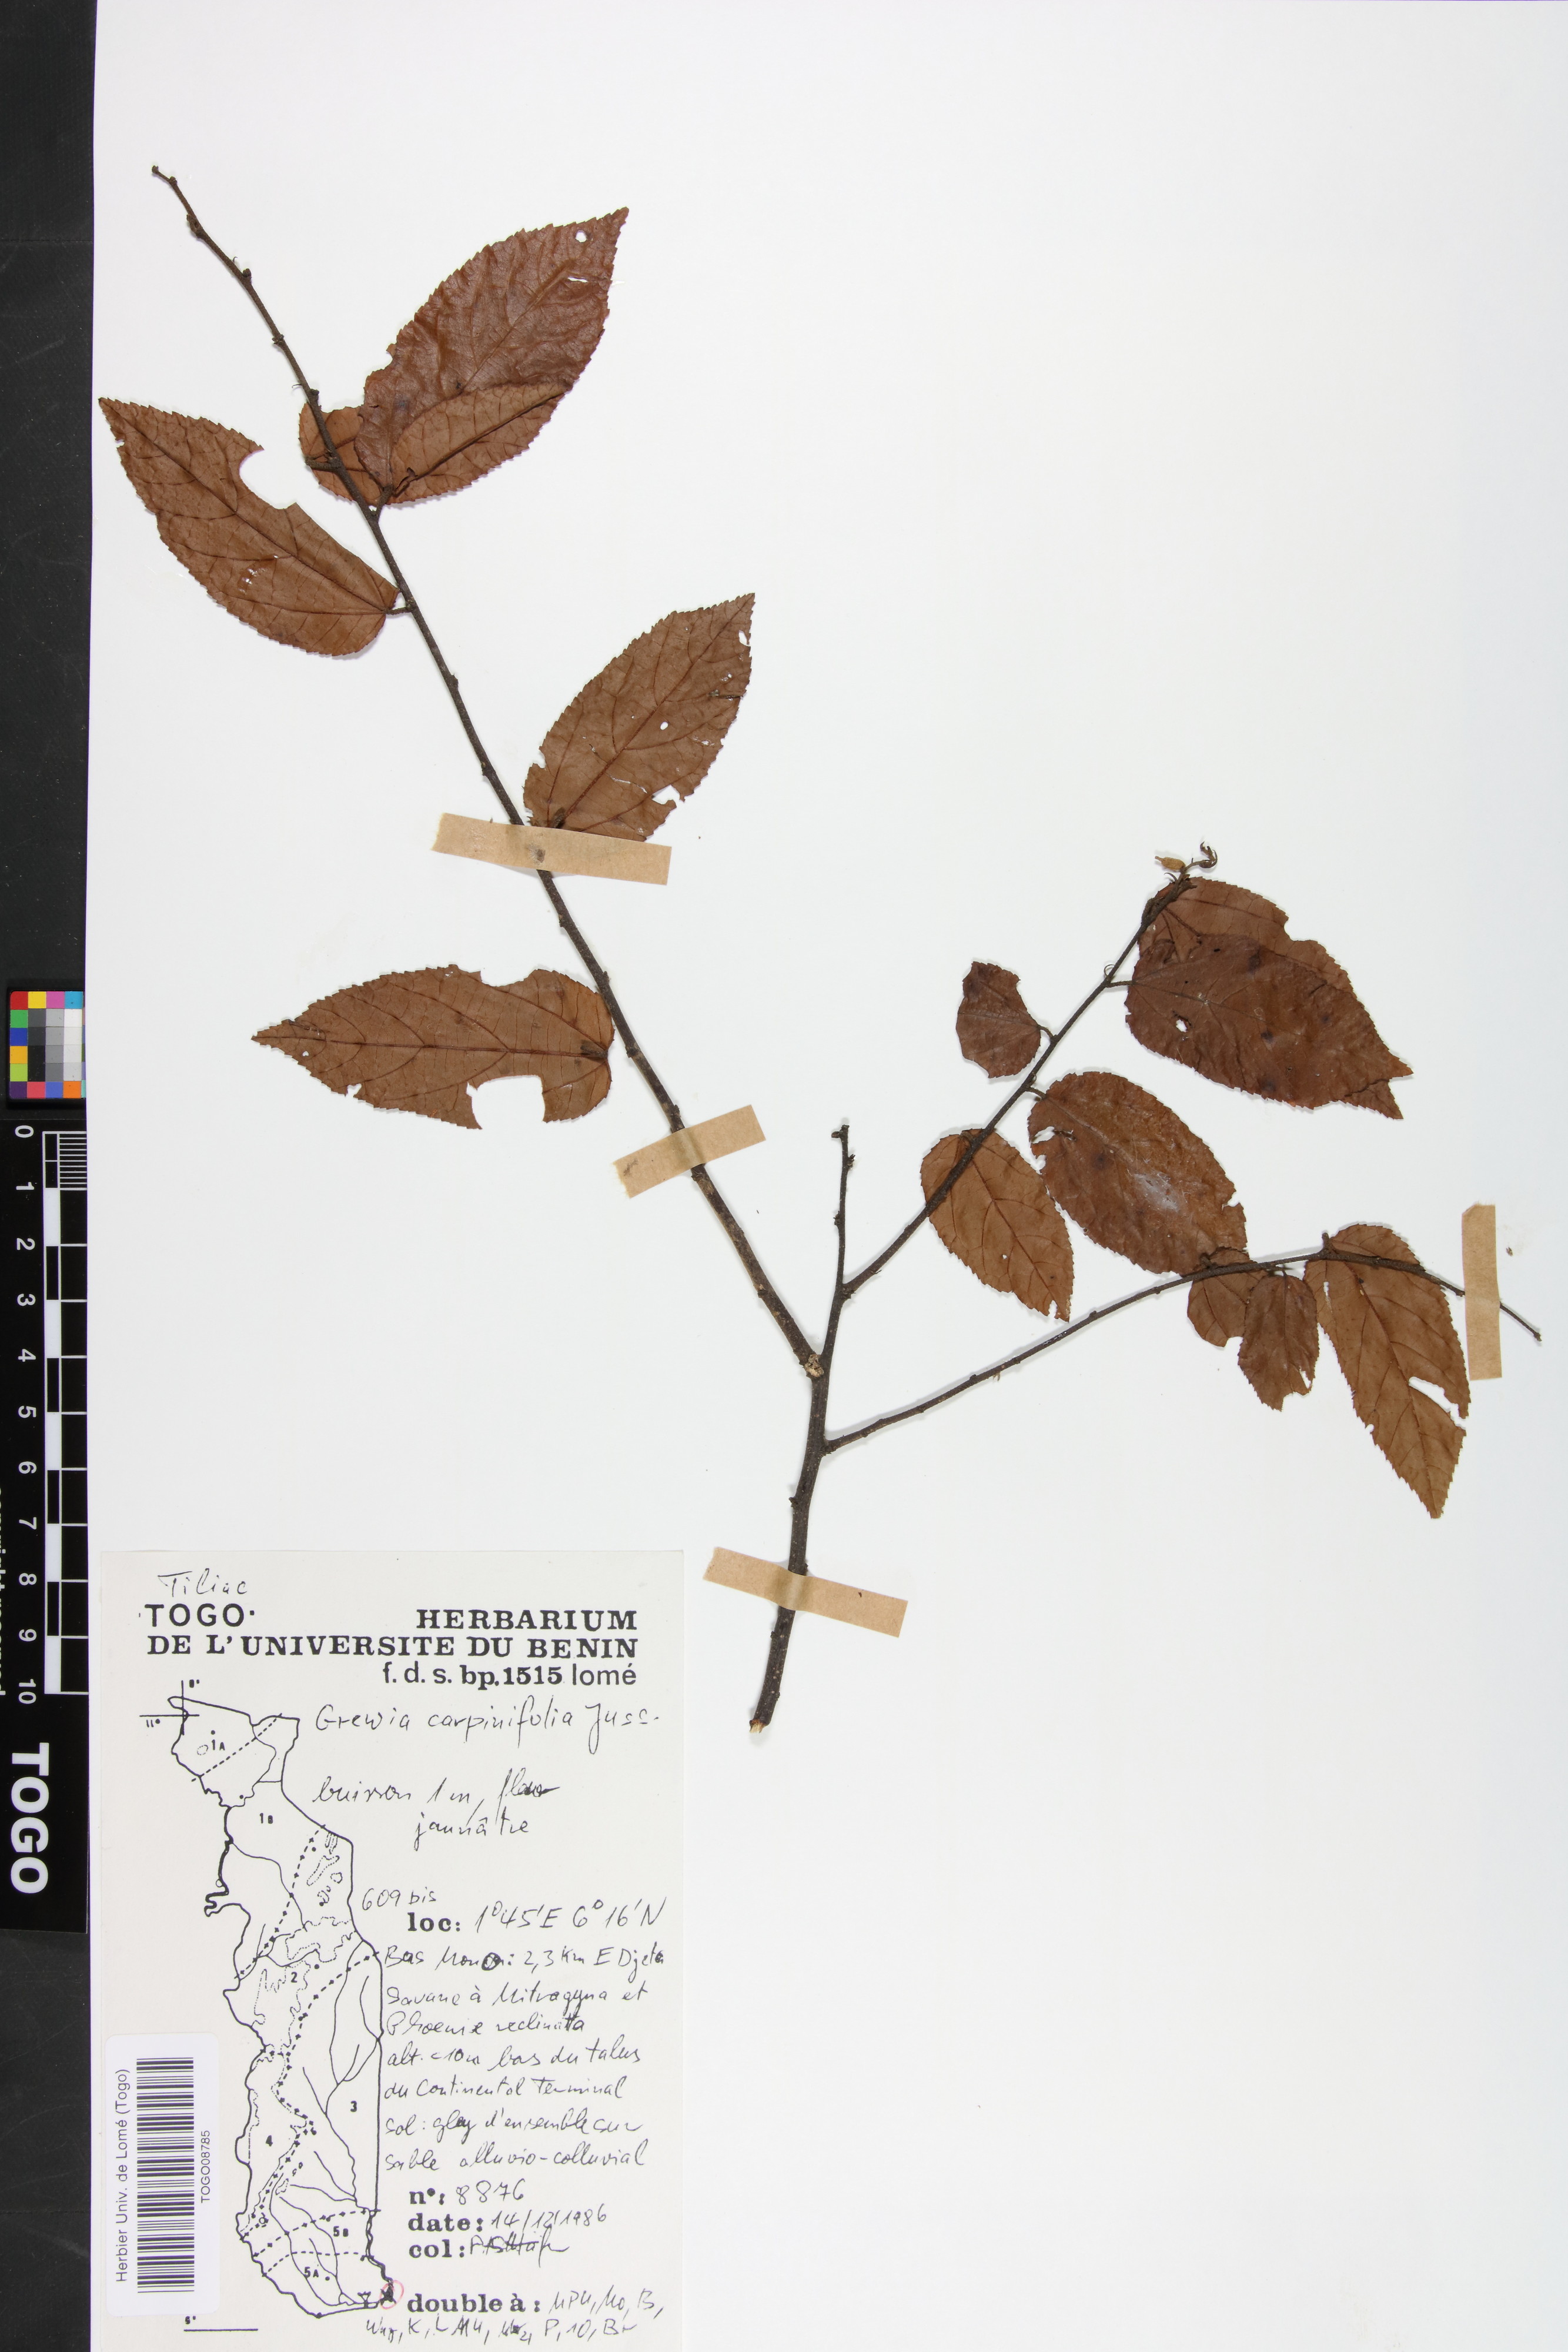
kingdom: Plantae
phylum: Tracheophyta
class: Magnoliopsida
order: Malvales
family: Malvaceae
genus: Grewia
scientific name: Grewia carpinifolia
